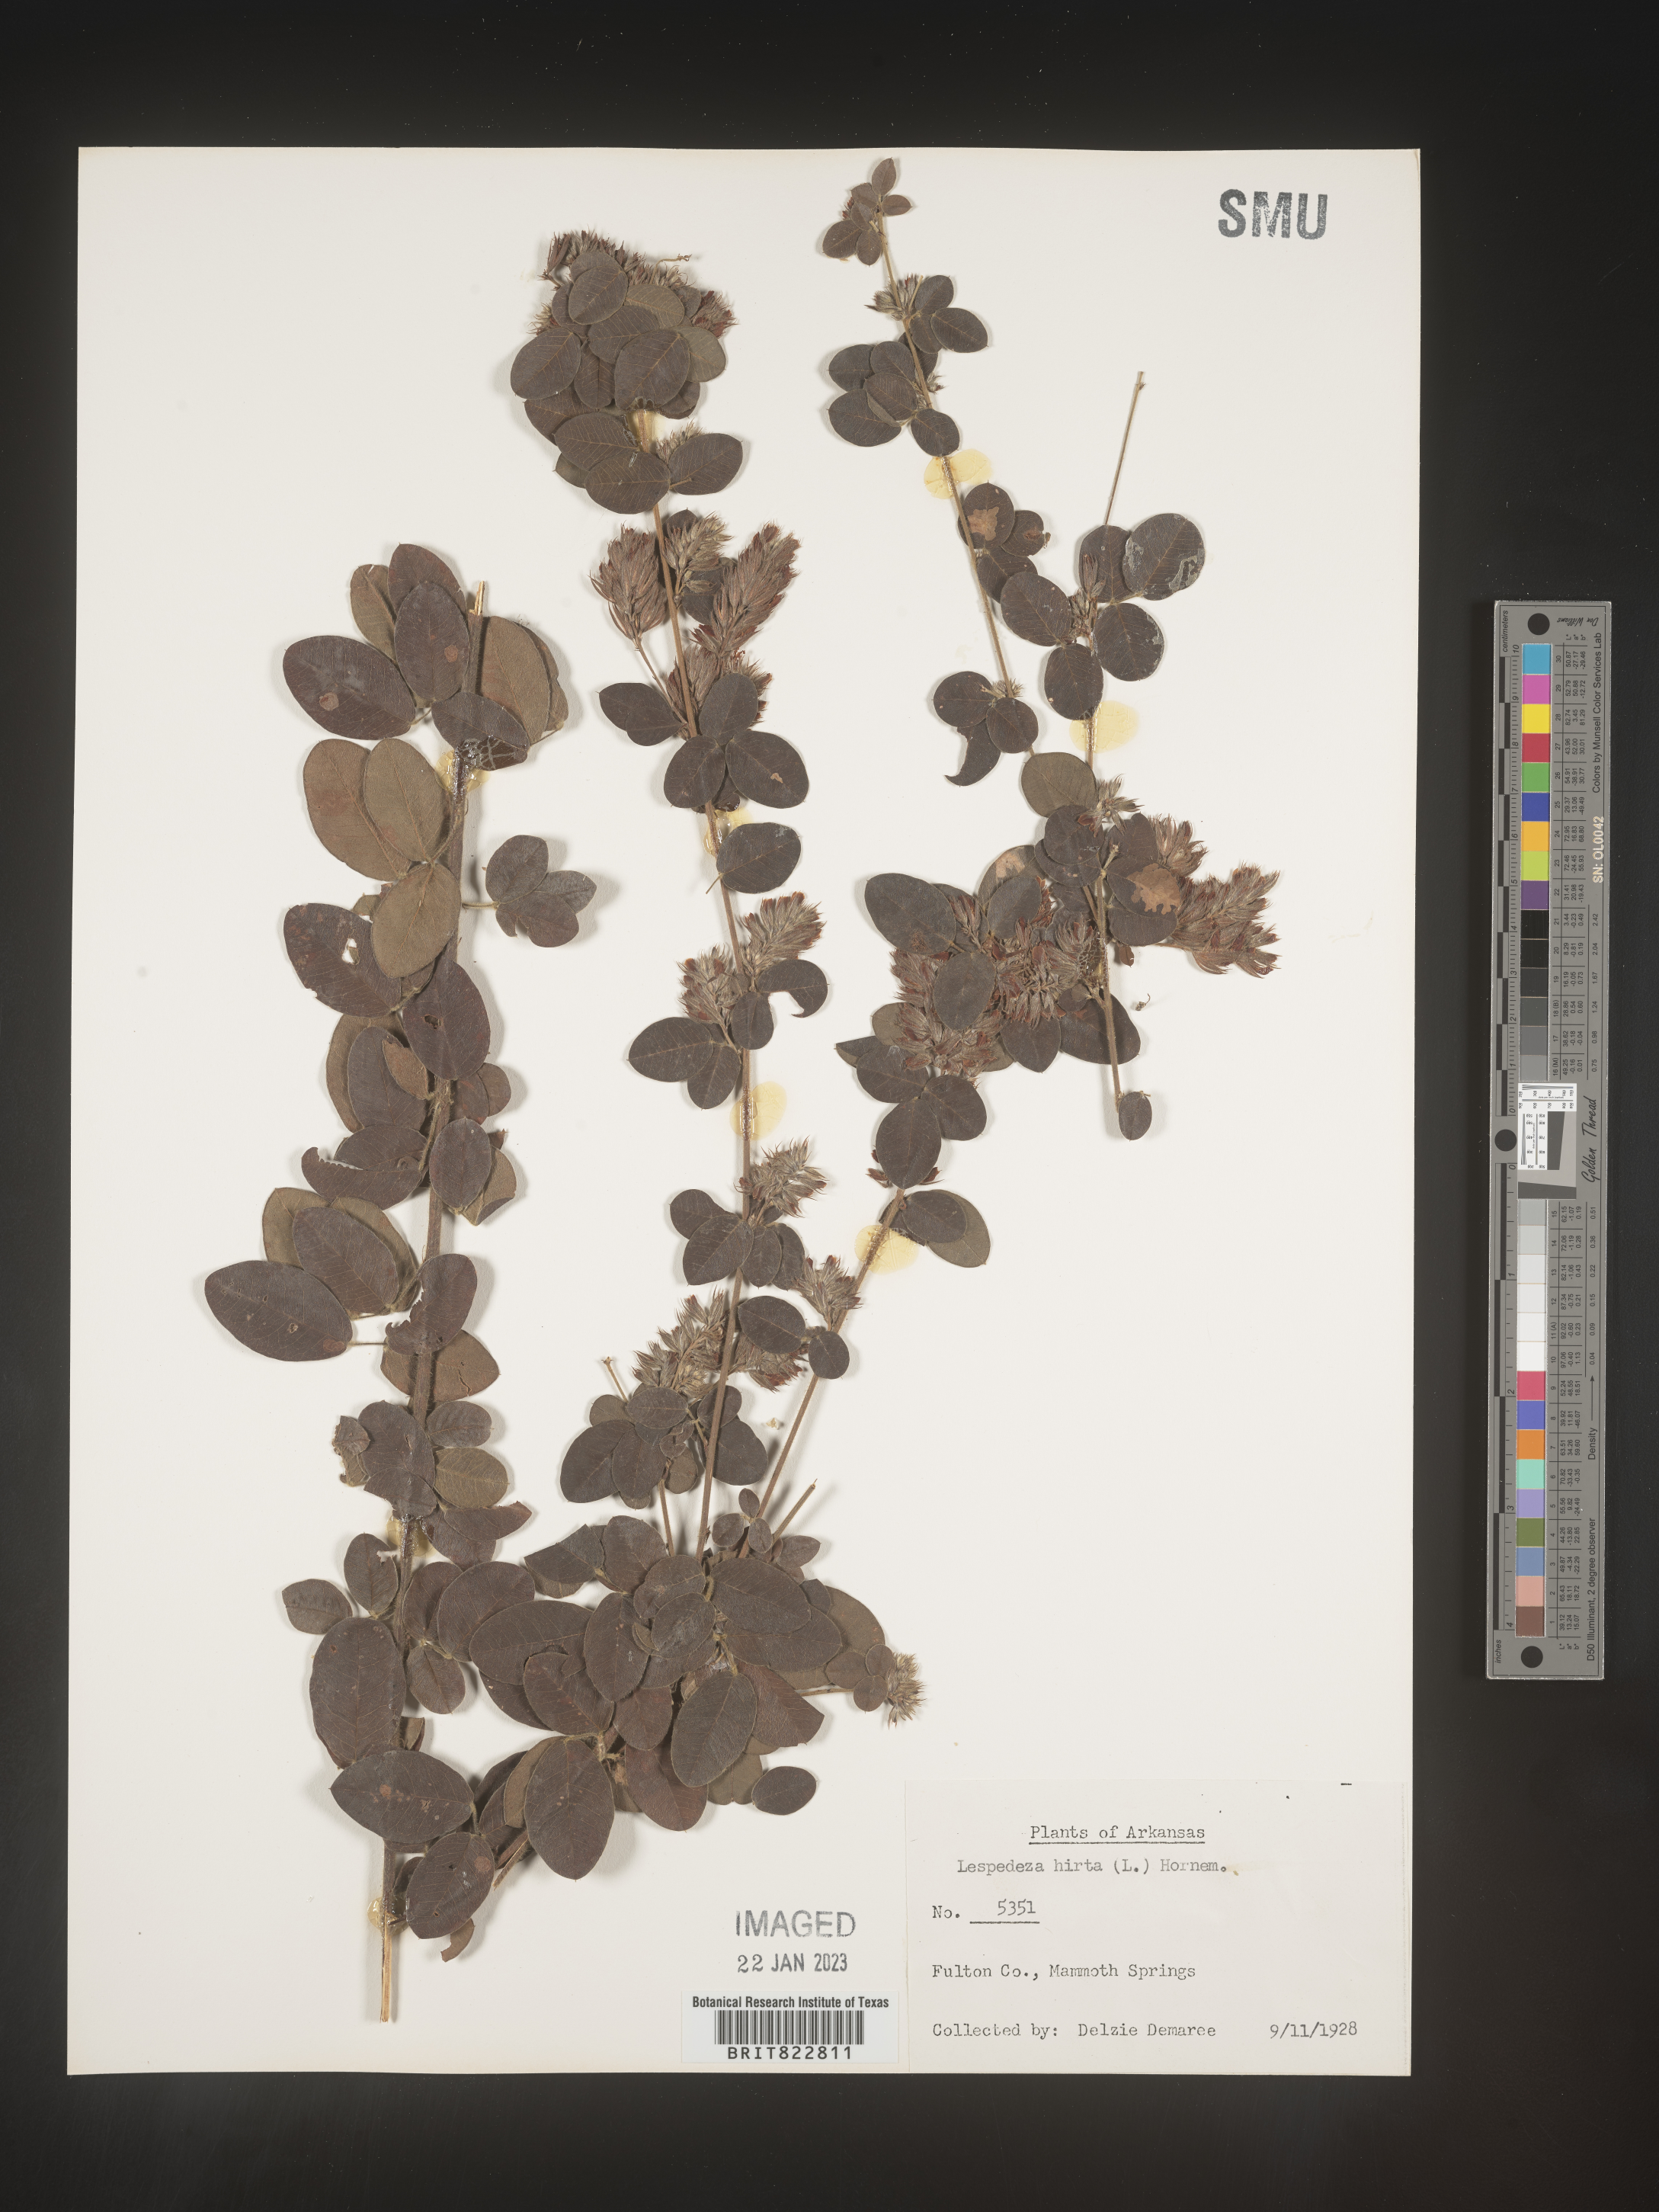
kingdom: Plantae
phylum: Tracheophyta
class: Magnoliopsida
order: Fabales
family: Fabaceae
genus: Lespedeza
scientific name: Lespedeza hirta
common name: Hairy lespedeza
